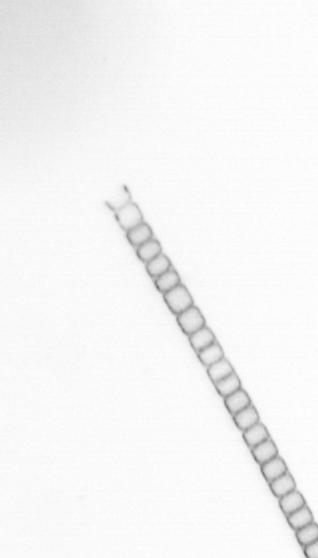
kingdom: Chromista
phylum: Ochrophyta
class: Bacillariophyceae
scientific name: Bacillariophyceae
